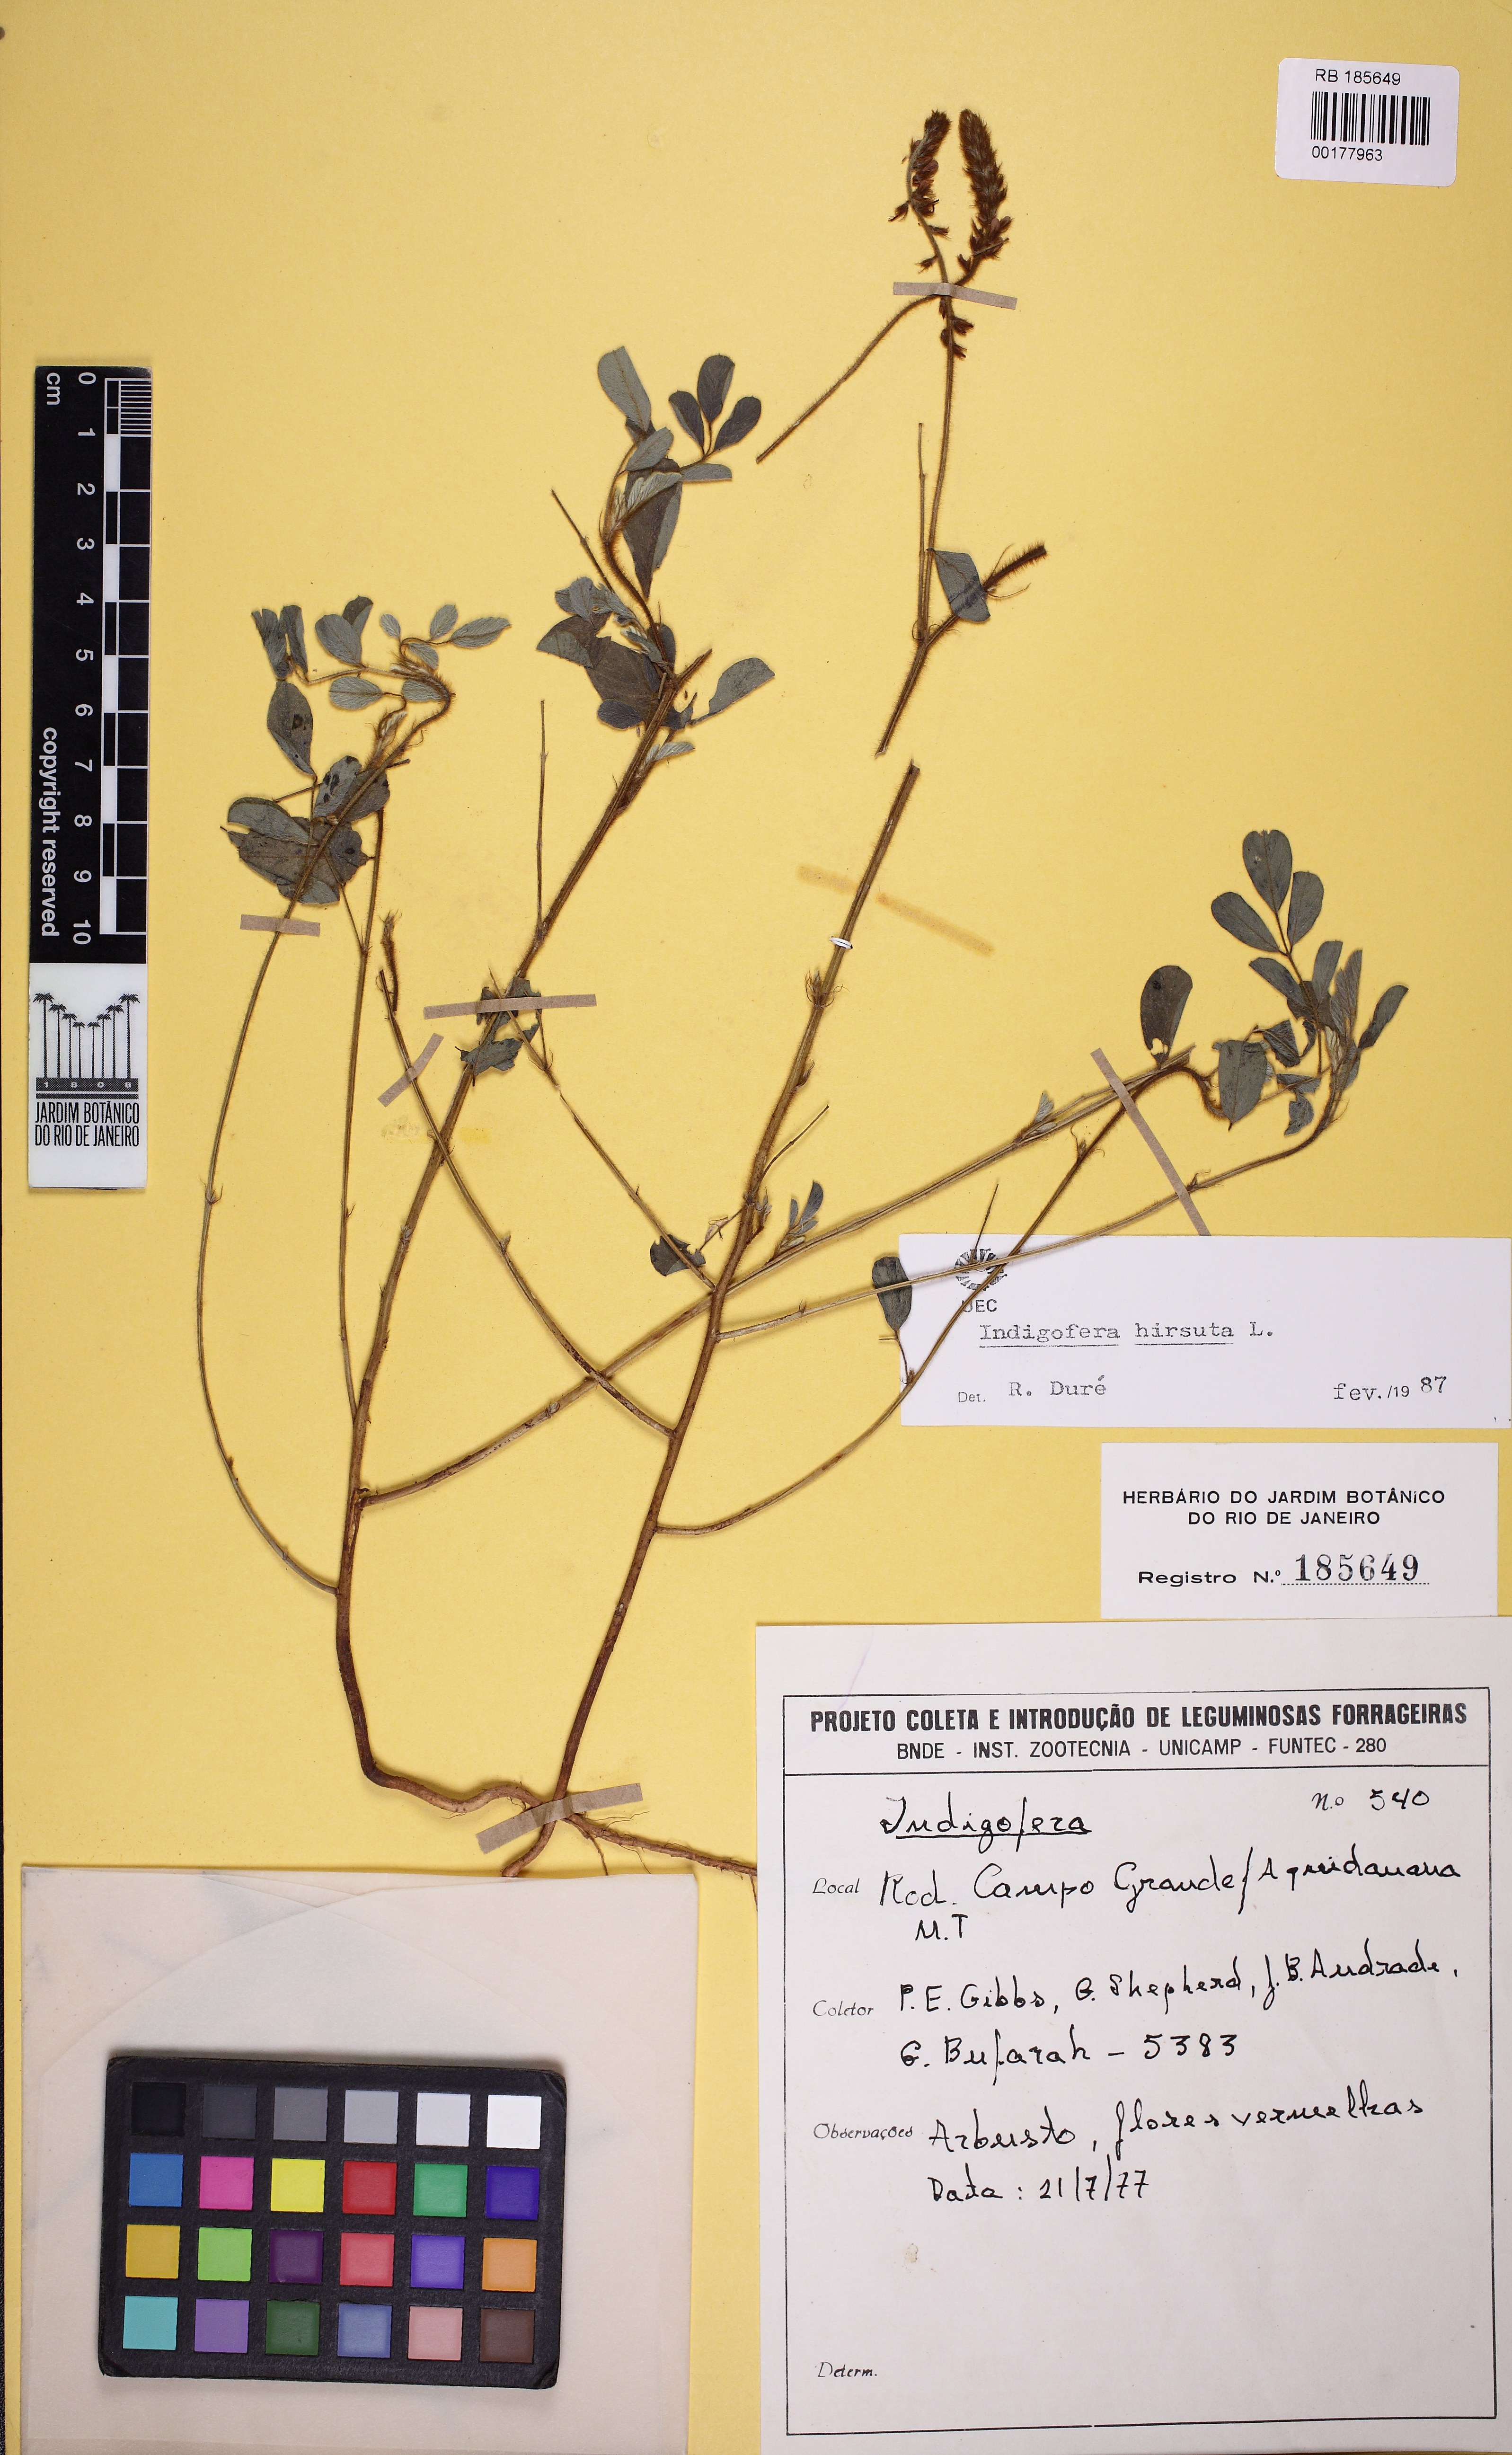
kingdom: Plantae
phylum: Tracheophyta
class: Magnoliopsida
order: Fabales
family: Fabaceae
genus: Indigofera
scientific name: Indigofera hirsuta
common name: Hairy indigo
